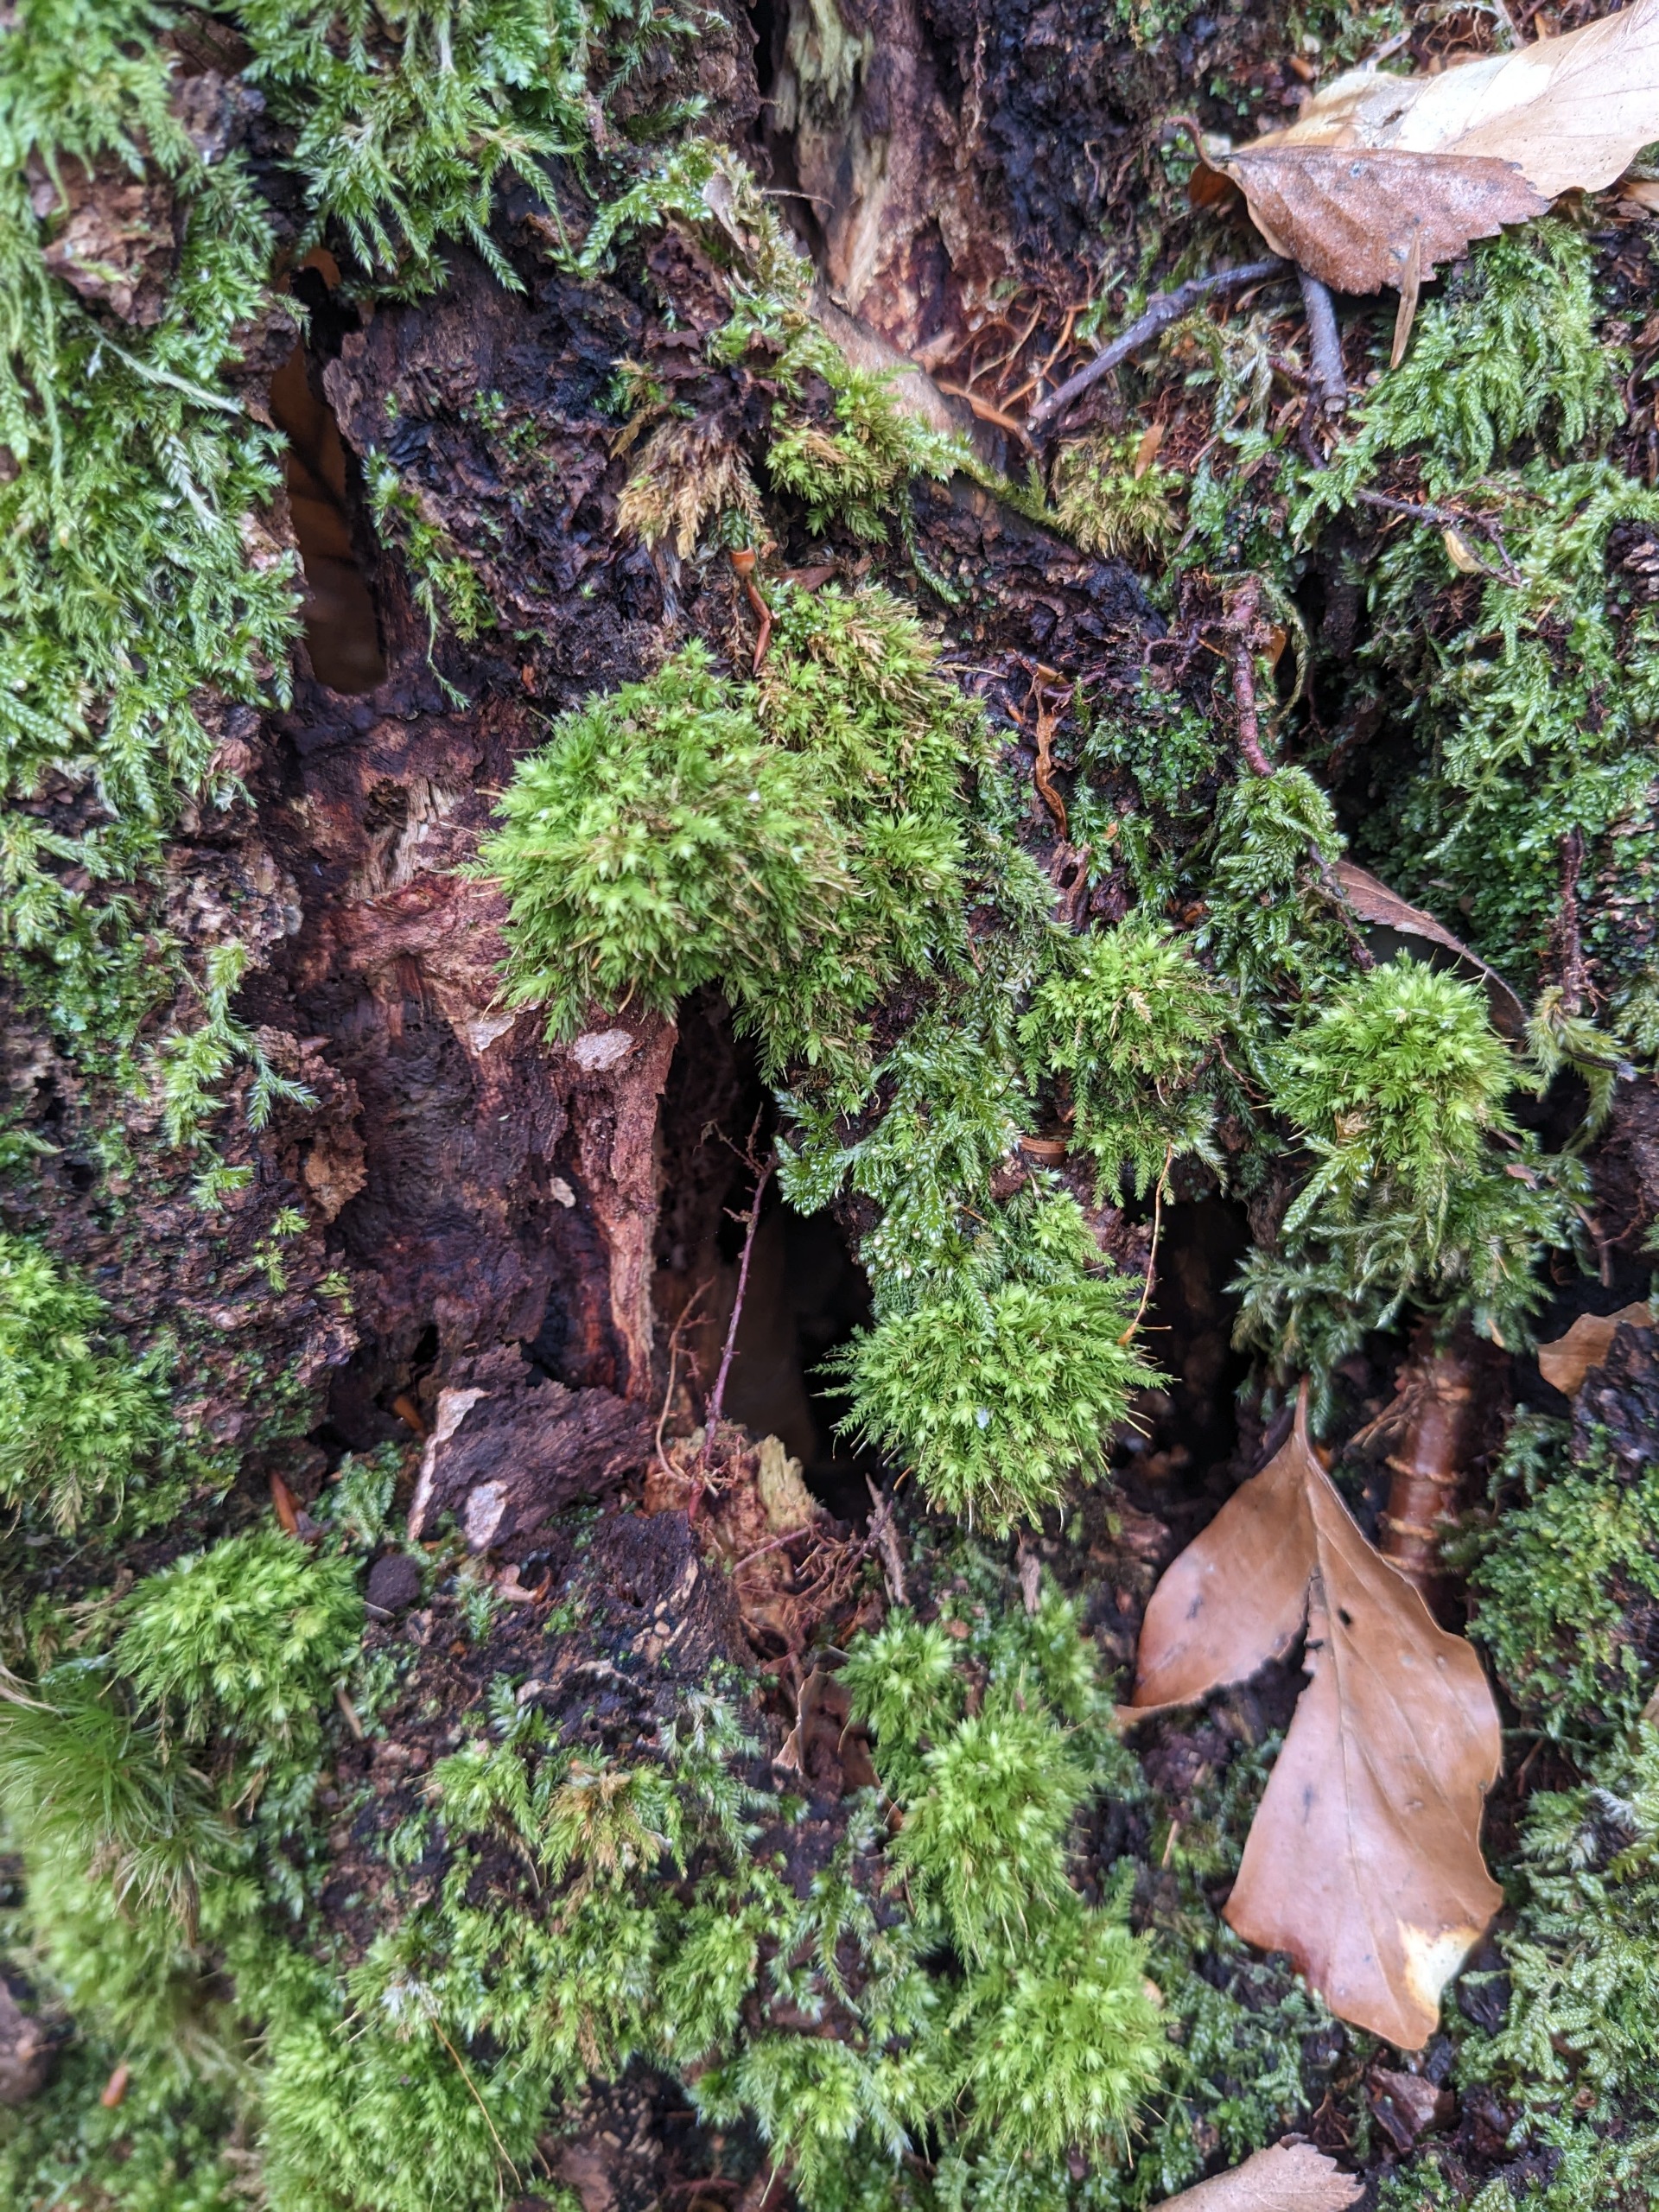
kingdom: Plantae
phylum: Bryophyta
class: Bryopsida
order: Aulacomniales
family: Aulacomniaceae
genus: Aulacomnium
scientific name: Aulacomnium androgynum
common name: Kugle-filtmos
